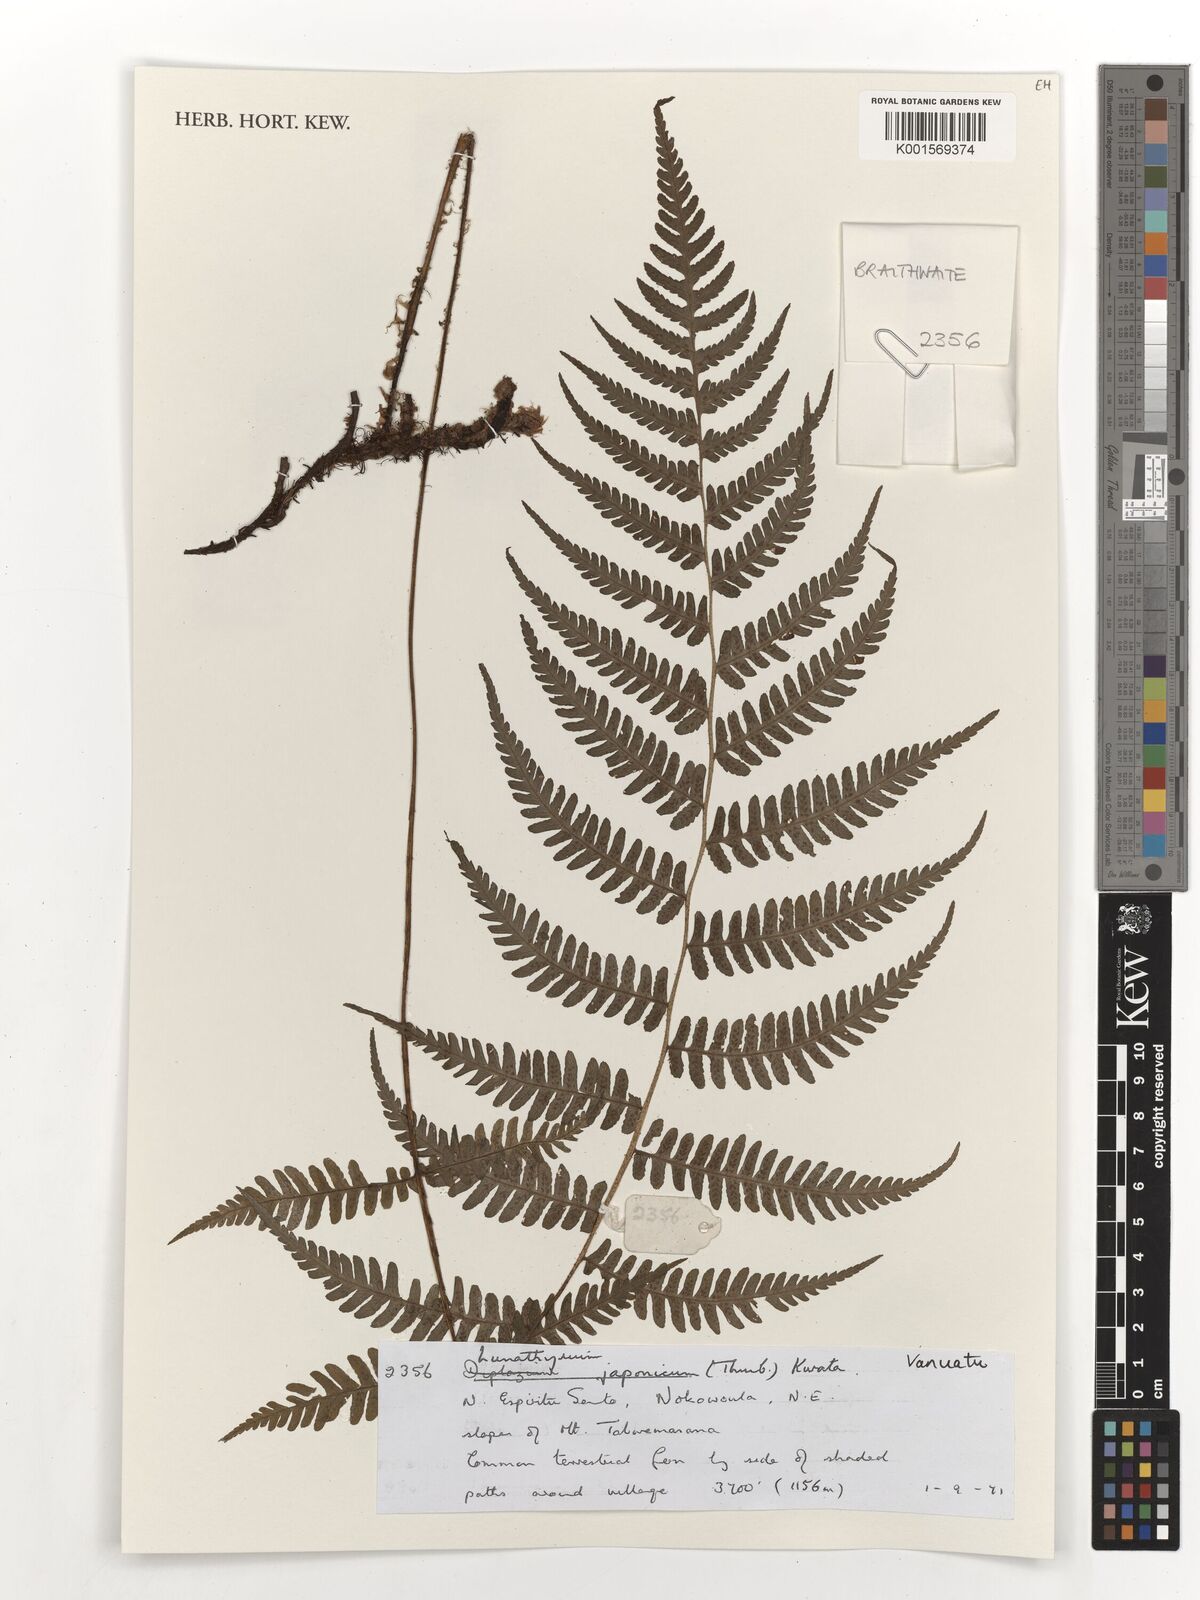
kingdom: Plantae
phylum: Tracheophyta
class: Polypodiopsida
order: Polypodiales
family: Athyriaceae
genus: Deparia
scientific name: Deparia japonica
